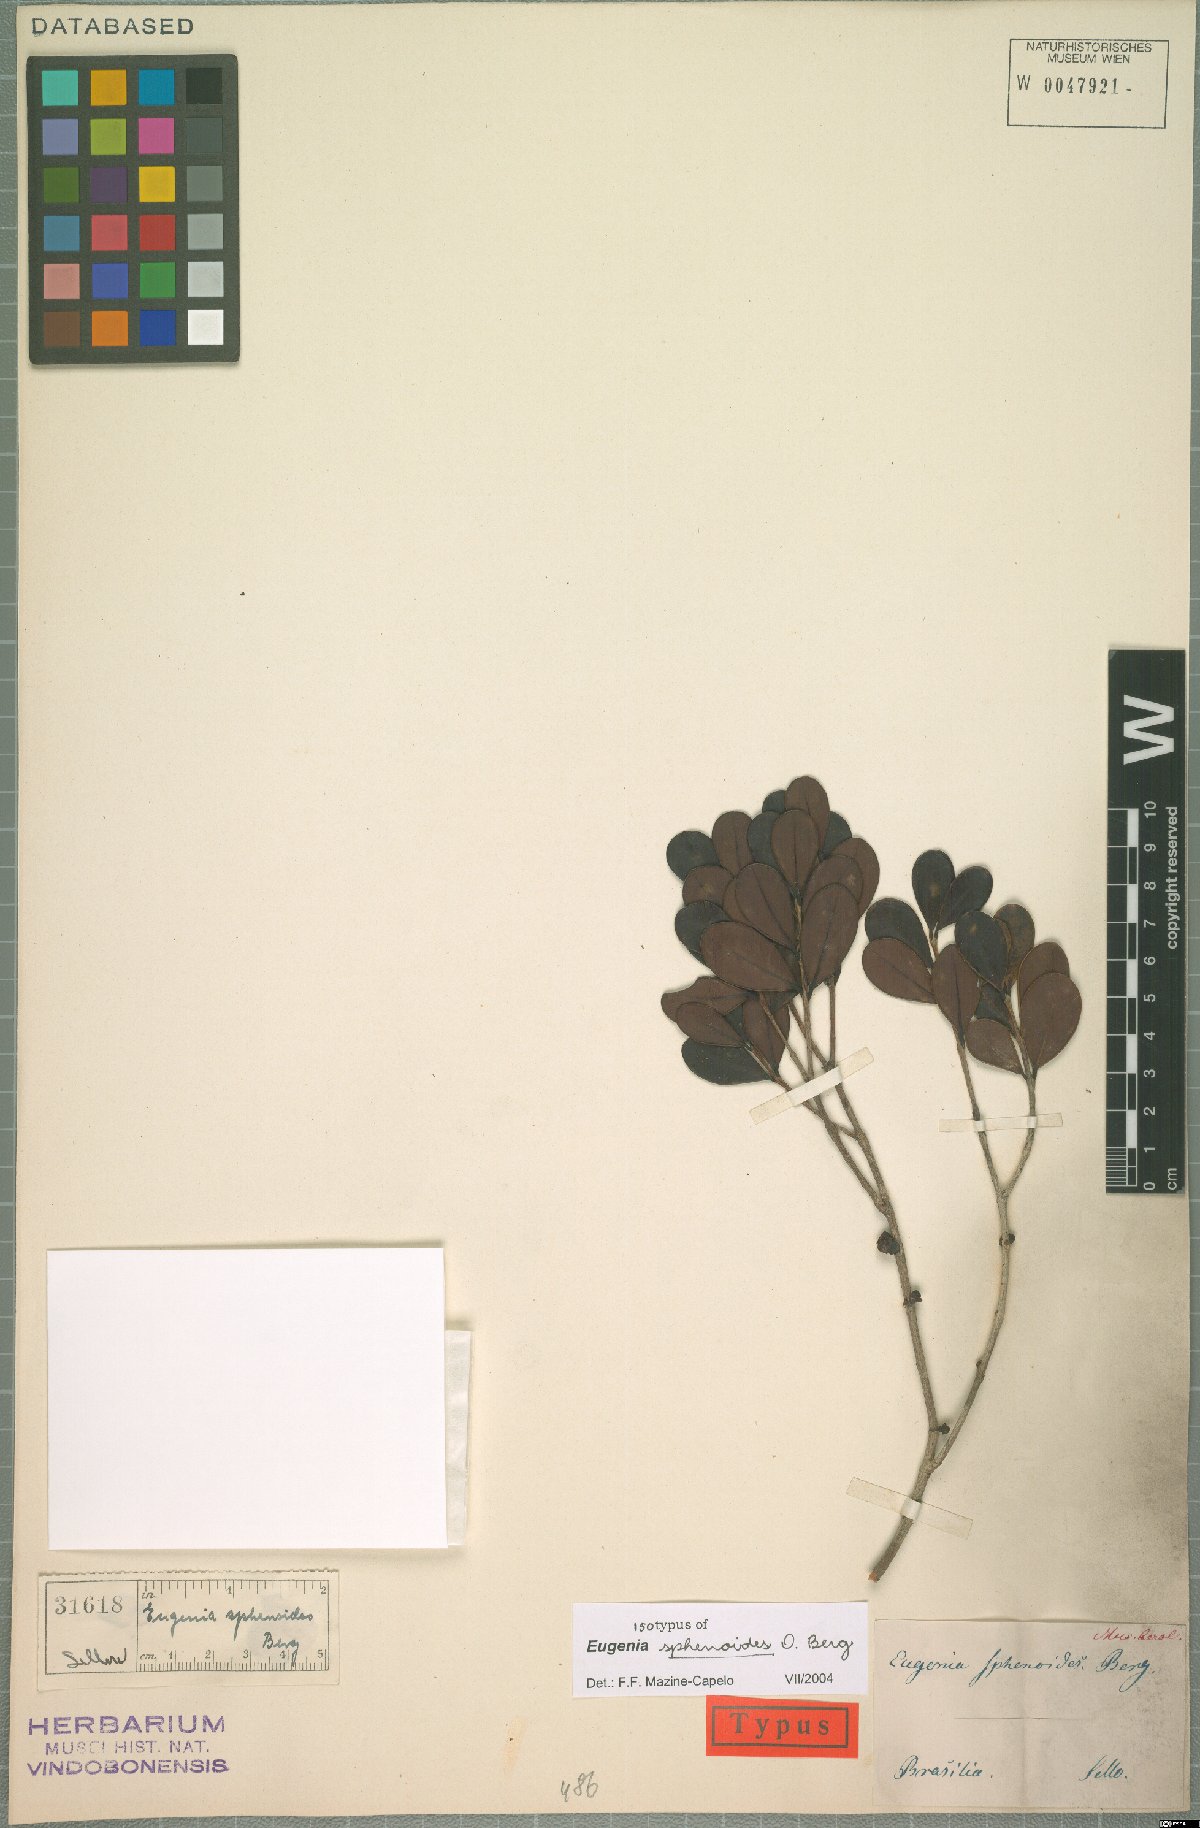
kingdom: Plantae
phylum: Tracheophyta
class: Magnoliopsida
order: Myrtales
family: Myrtaceae
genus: Eugenia
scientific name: Eugenia sphenoides
